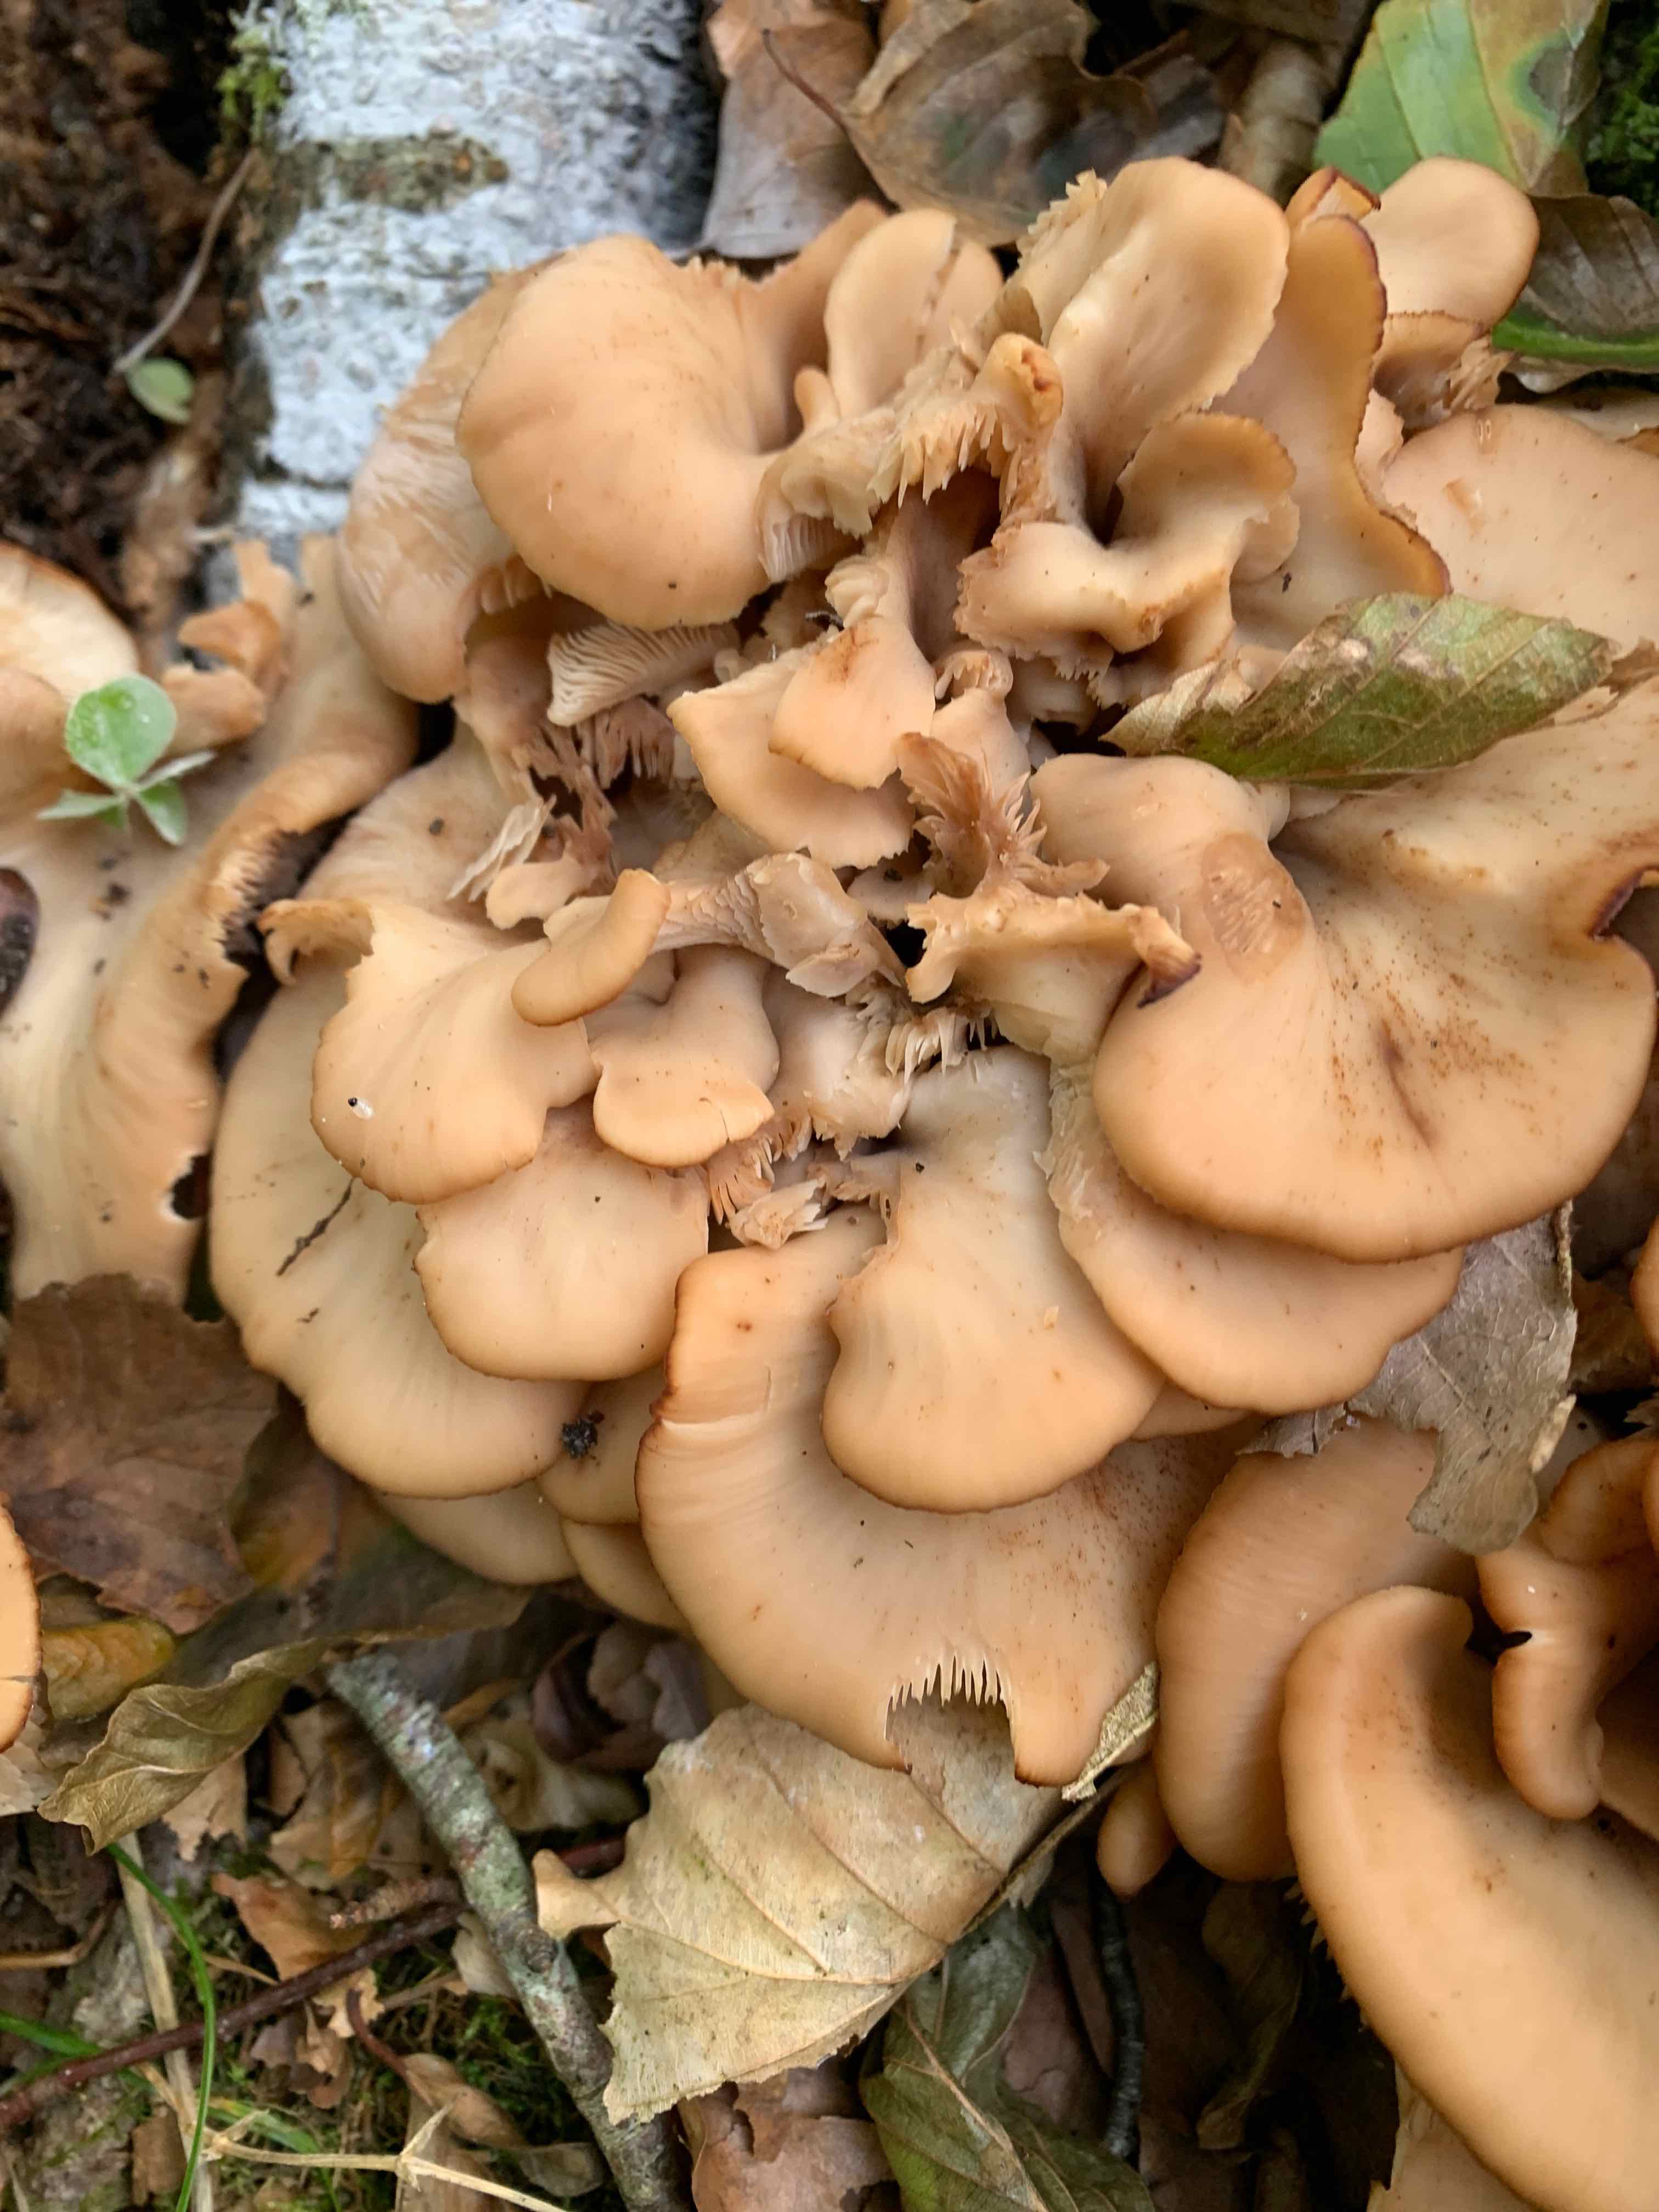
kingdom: Fungi
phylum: Basidiomycota
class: Agaricomycetes
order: Russulales
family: Auriscalpiaceae
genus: Lentinellus
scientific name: Lentinellus cochleatus
